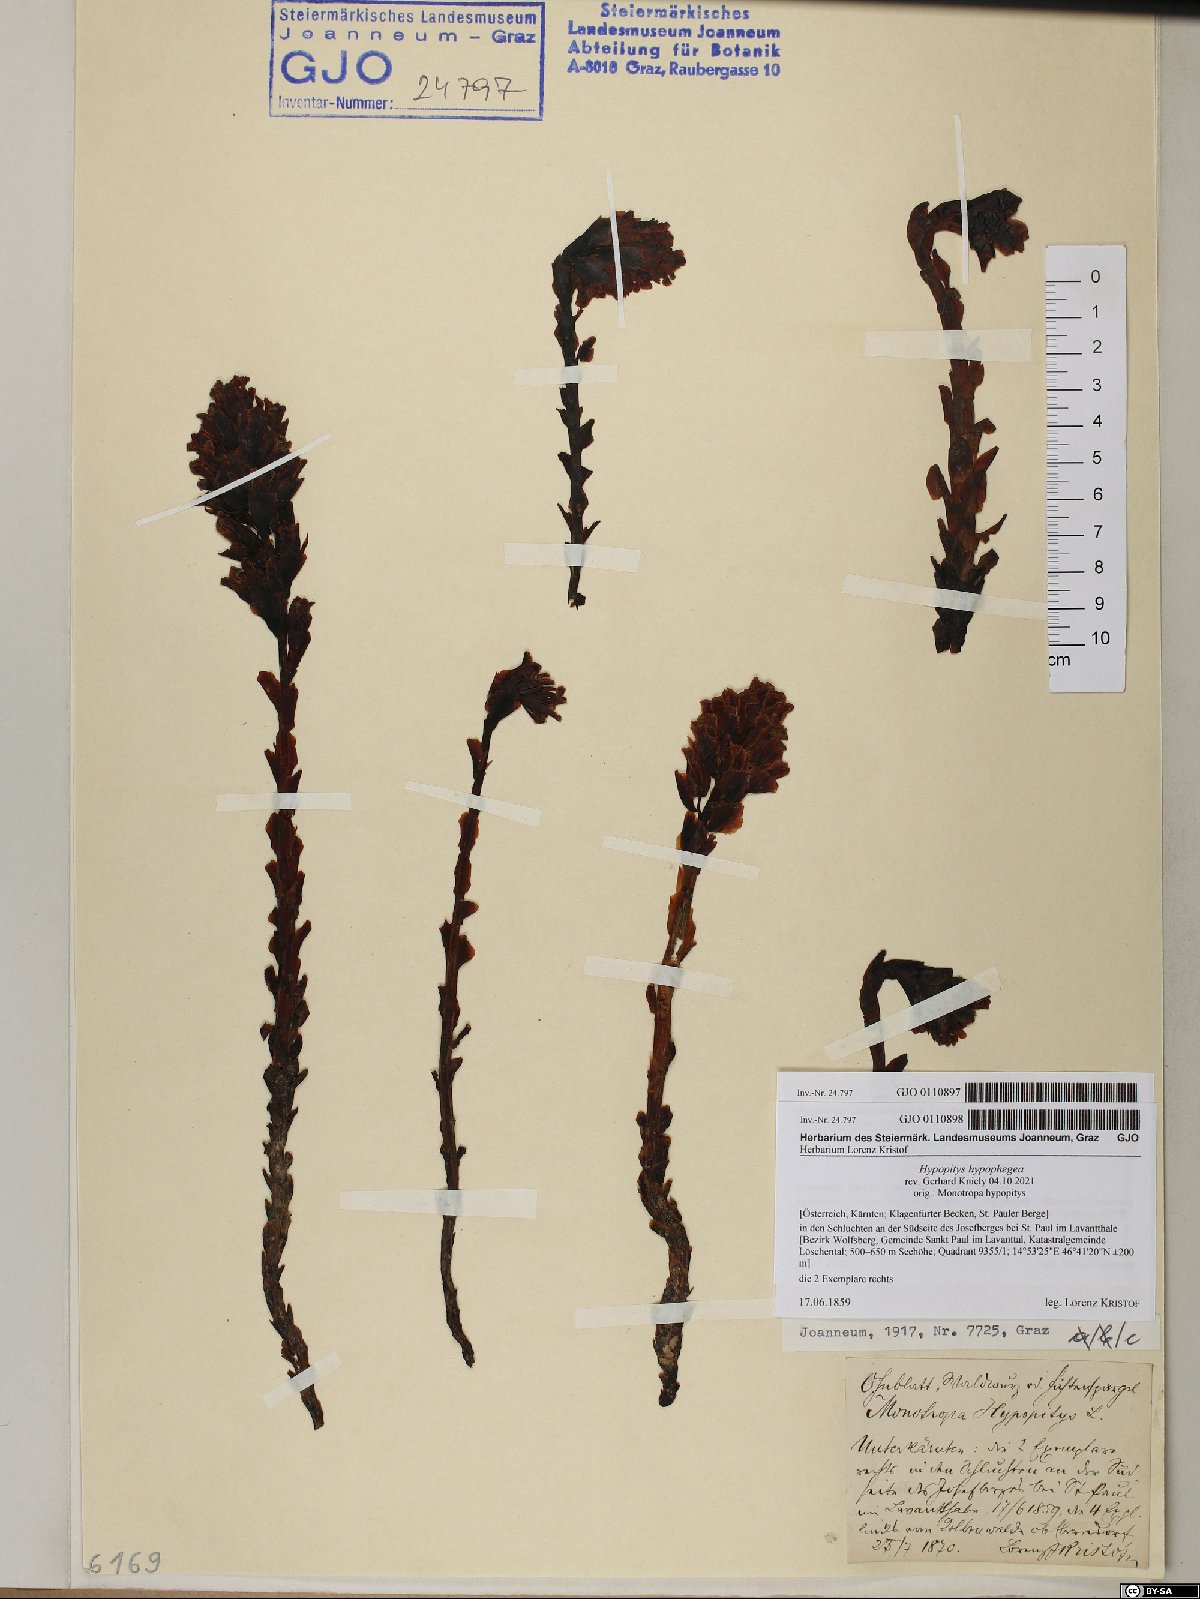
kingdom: Plantae
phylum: Tracheophyta
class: Magnoliopsida
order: Ericales
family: Ericaceae
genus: Hypopitys
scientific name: Hypopitys monotropa
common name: Yellow bird's-nest
